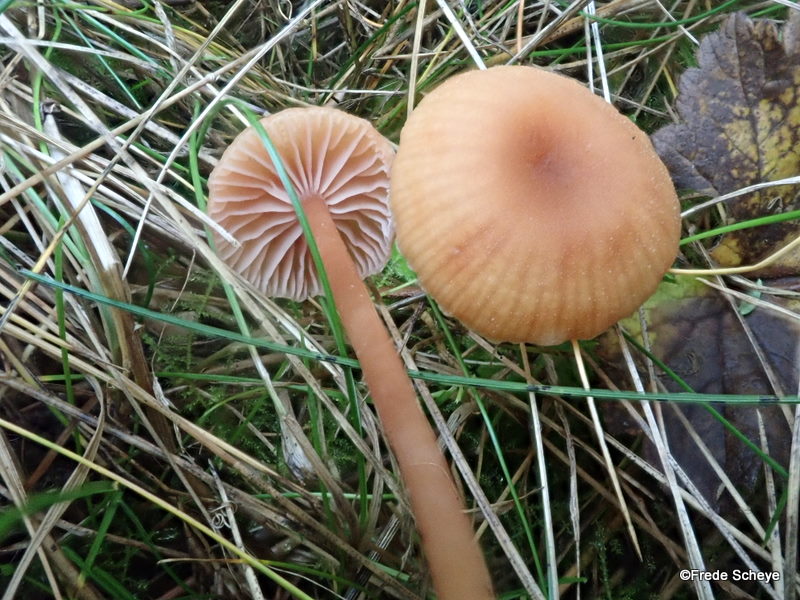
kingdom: Fungi
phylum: Basidiomycota
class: Agaricomycetes
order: Agaricales
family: Hydnangiaceae
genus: Laccaria
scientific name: Laccaria laccata
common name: rød ametysthat
